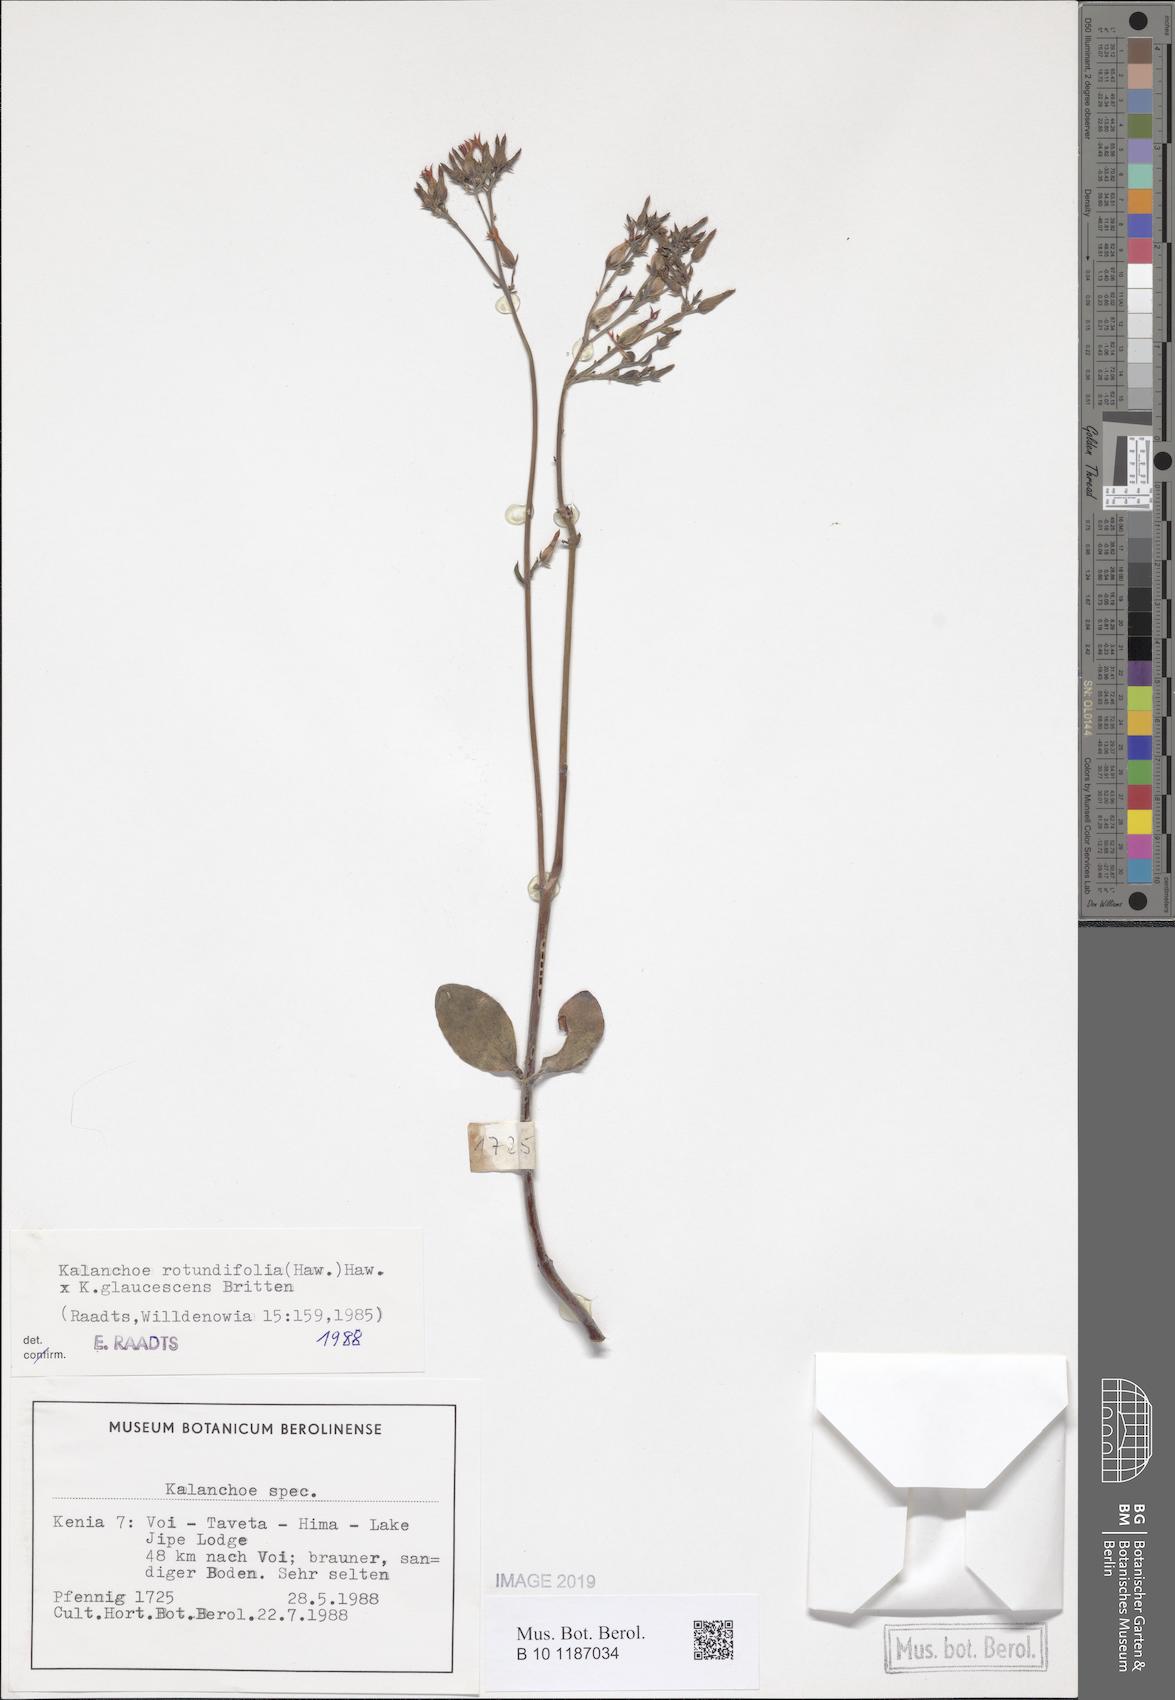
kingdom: Plantae
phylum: Tracheophyta
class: Magnoliopsida
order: Saxifragales
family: Crassulaceae
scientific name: Crassulaceae
